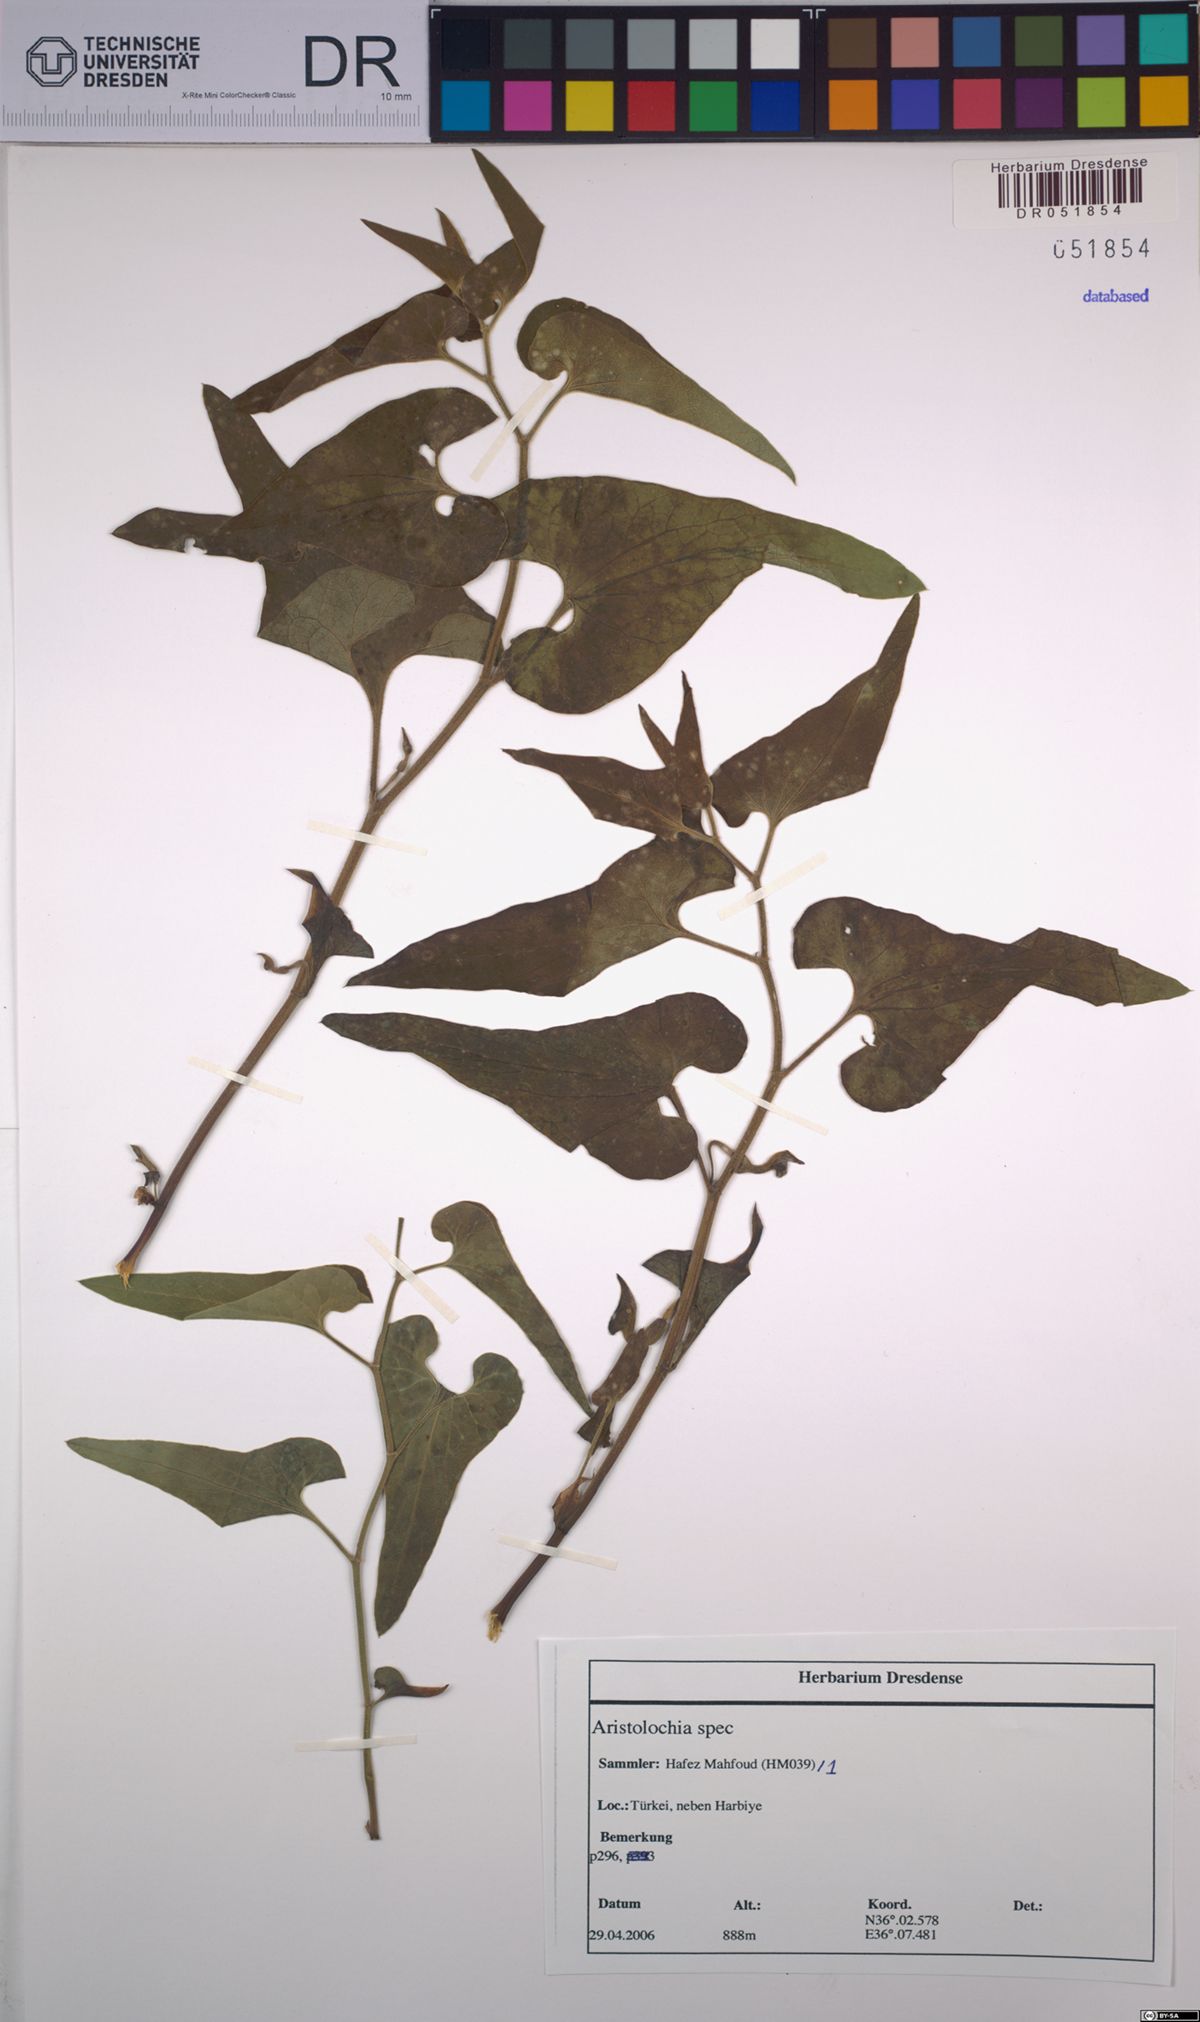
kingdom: Plantae
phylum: Tracheophyta
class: Magnoliopsida
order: Piperales
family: Aristolochiaceae
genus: Aristolochia
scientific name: Aristolochia
